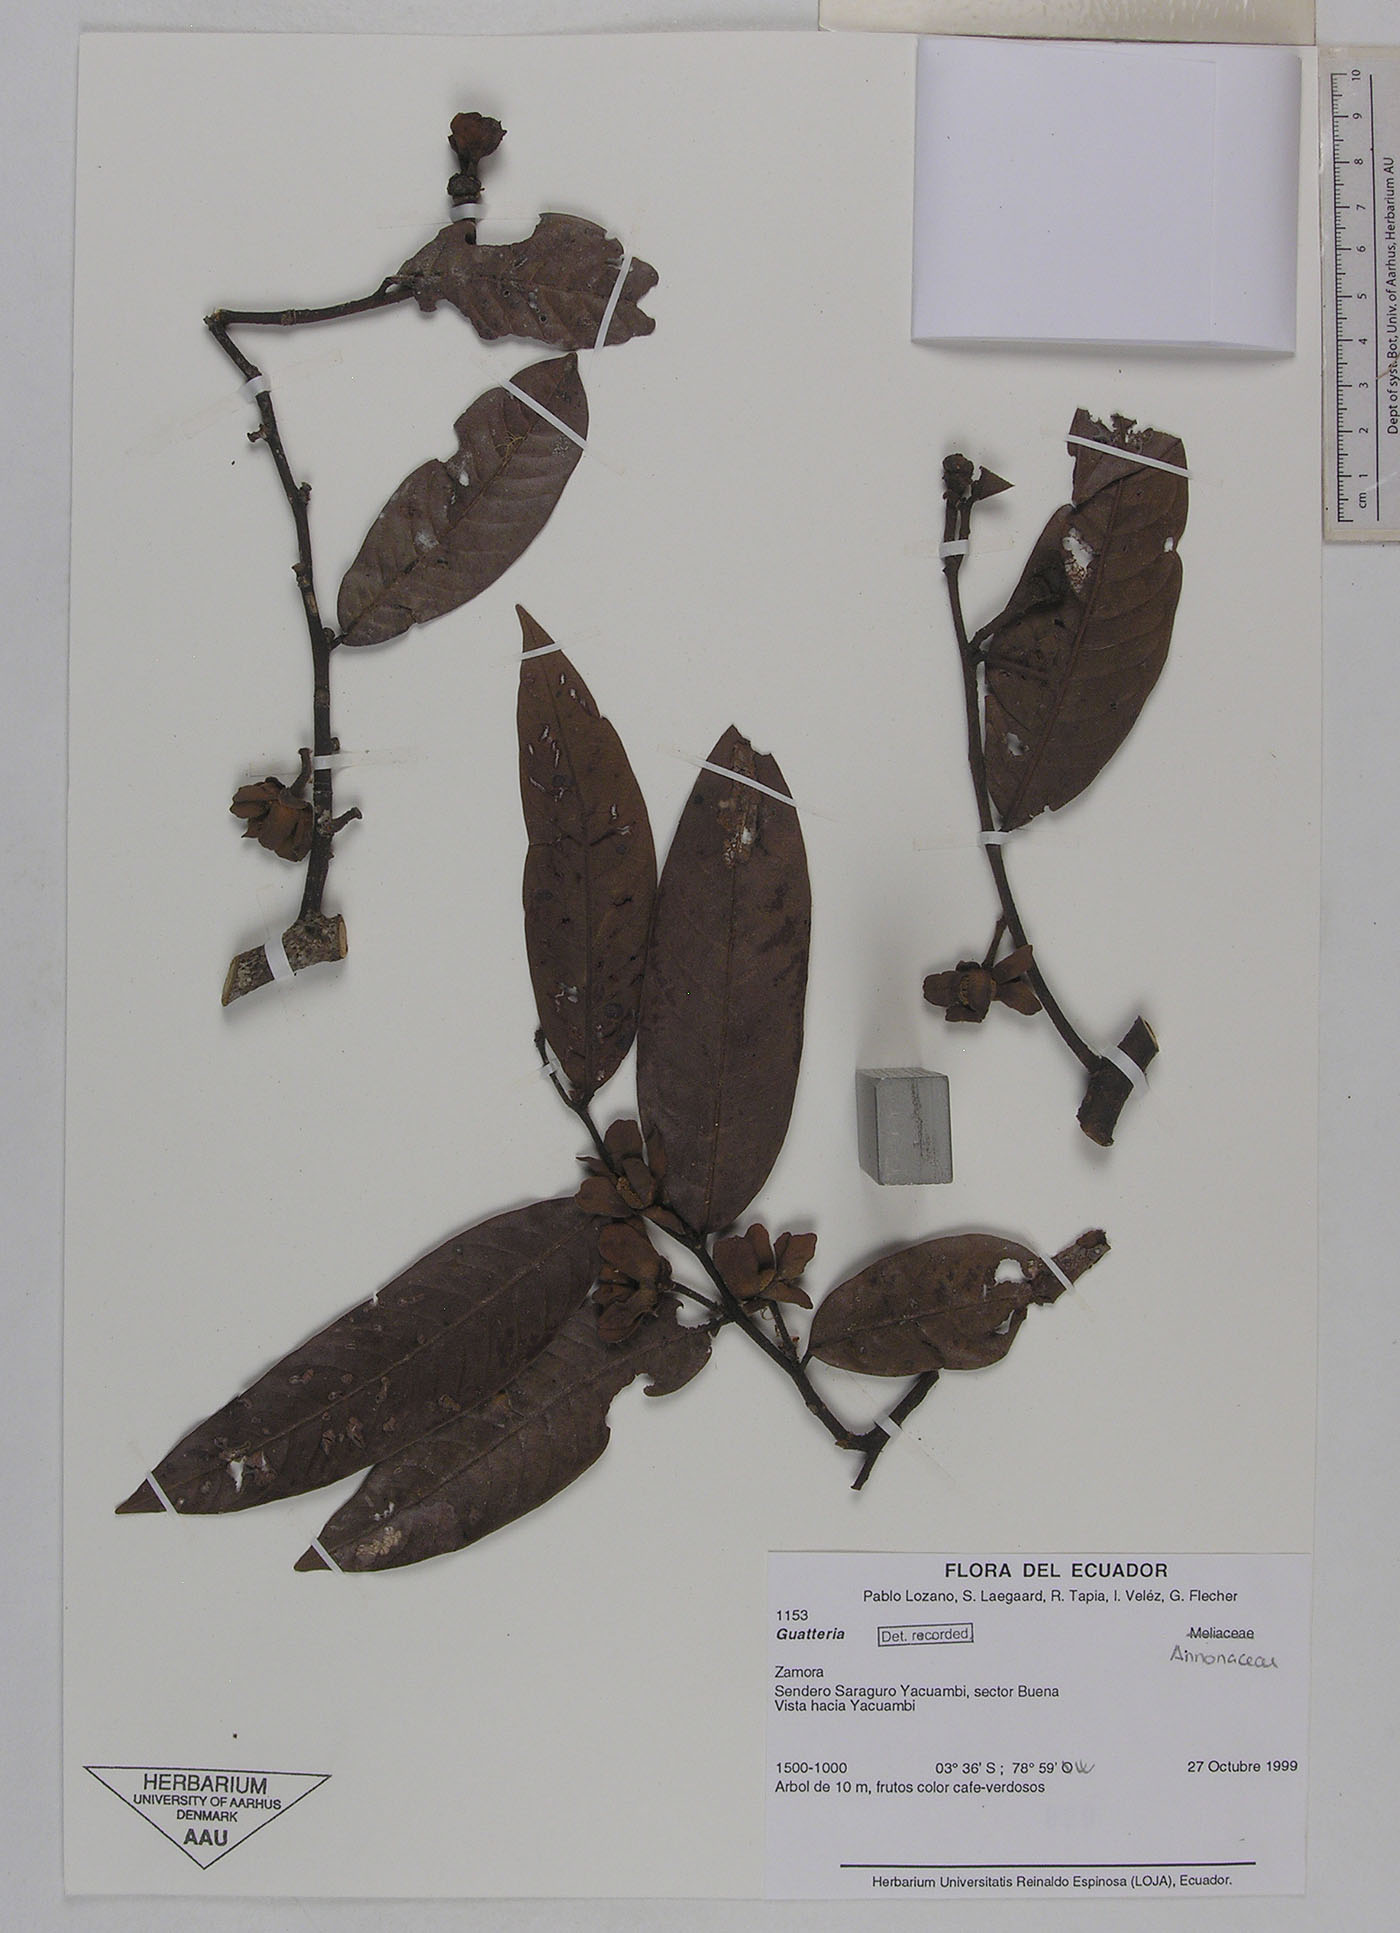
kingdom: Plantae
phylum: Tracheophyta
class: Magnoliopsida
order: Magnoliales
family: Annonaceae
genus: Guatteria
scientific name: Guatteria punctata
